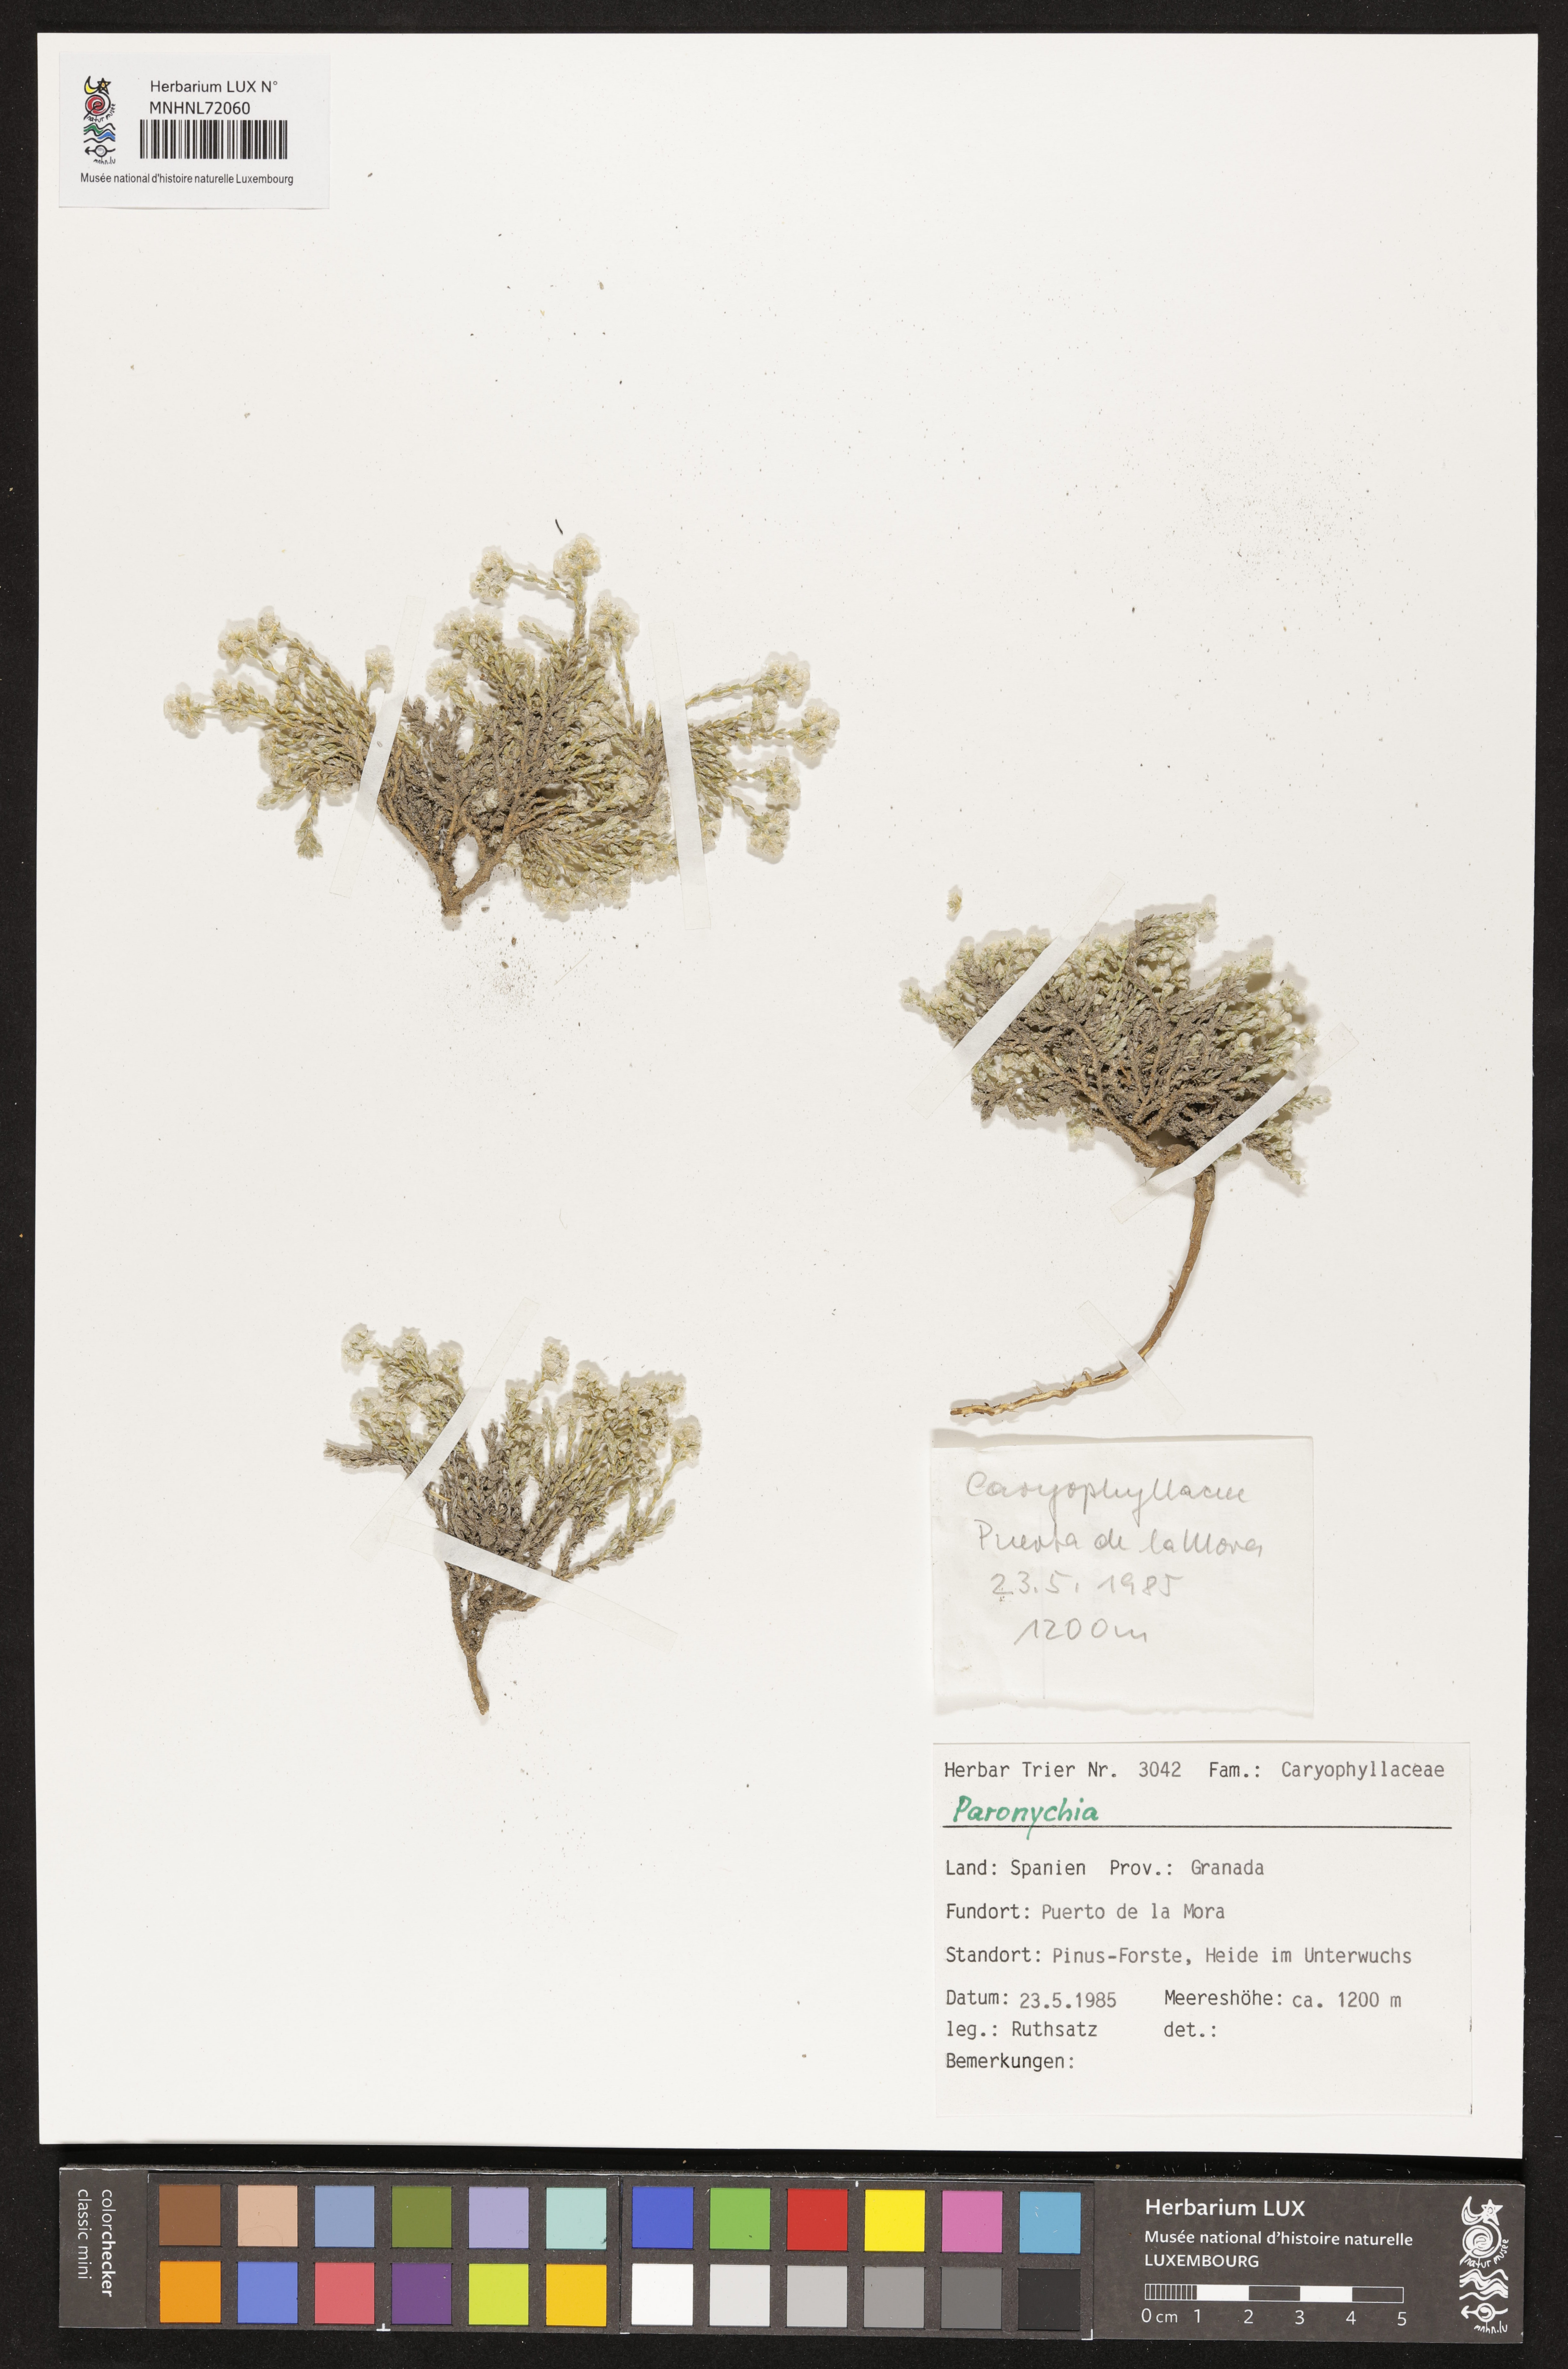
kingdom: Plantae
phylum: Tracheophyta
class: Magnoliopsida
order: Caryophyllales
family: Caryophyllaceae
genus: Paronychia
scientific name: Paronychia
